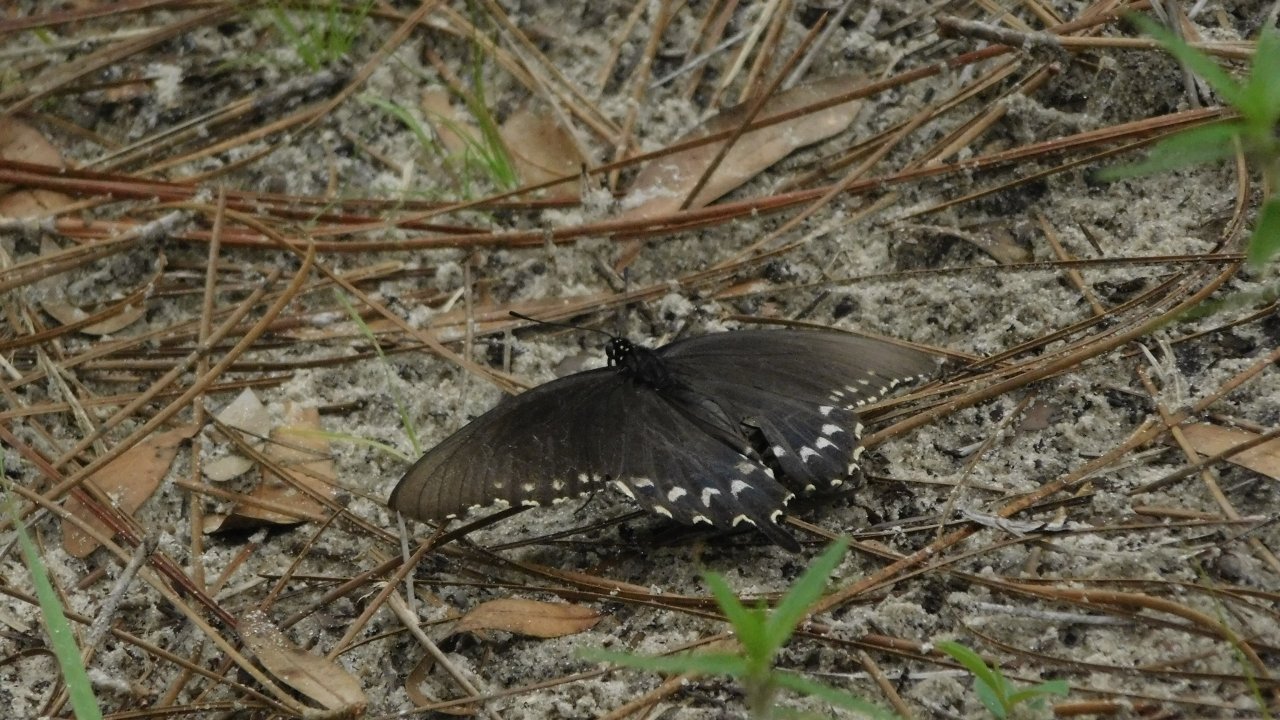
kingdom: Animalia
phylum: Arthropoda
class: Insecta
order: Lepidoptera
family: Papilionidae
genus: Pterourus
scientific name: Pterourus troilus
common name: Spicebush Swallowtail
